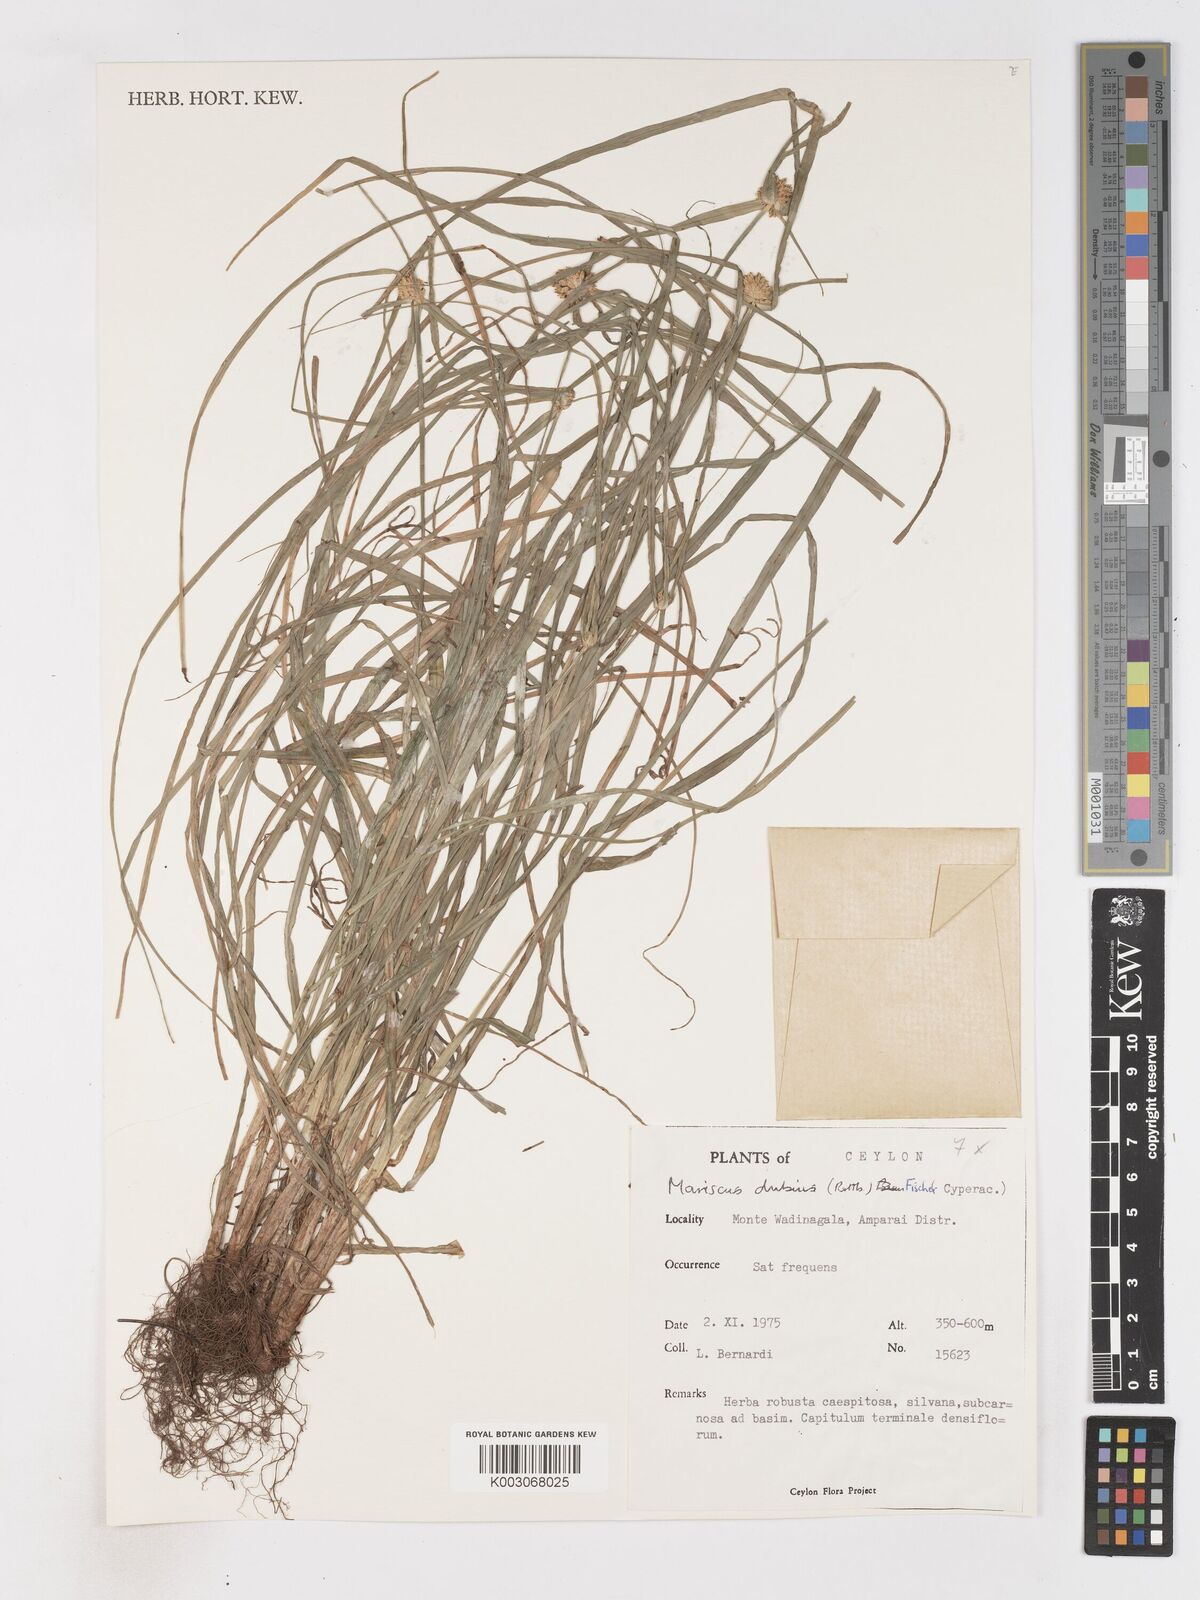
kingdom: Plantae
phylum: Tracheophyta
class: Liliopsida
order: Poales
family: Cyperaceae
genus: Cyperus
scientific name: Cyperus dubius
